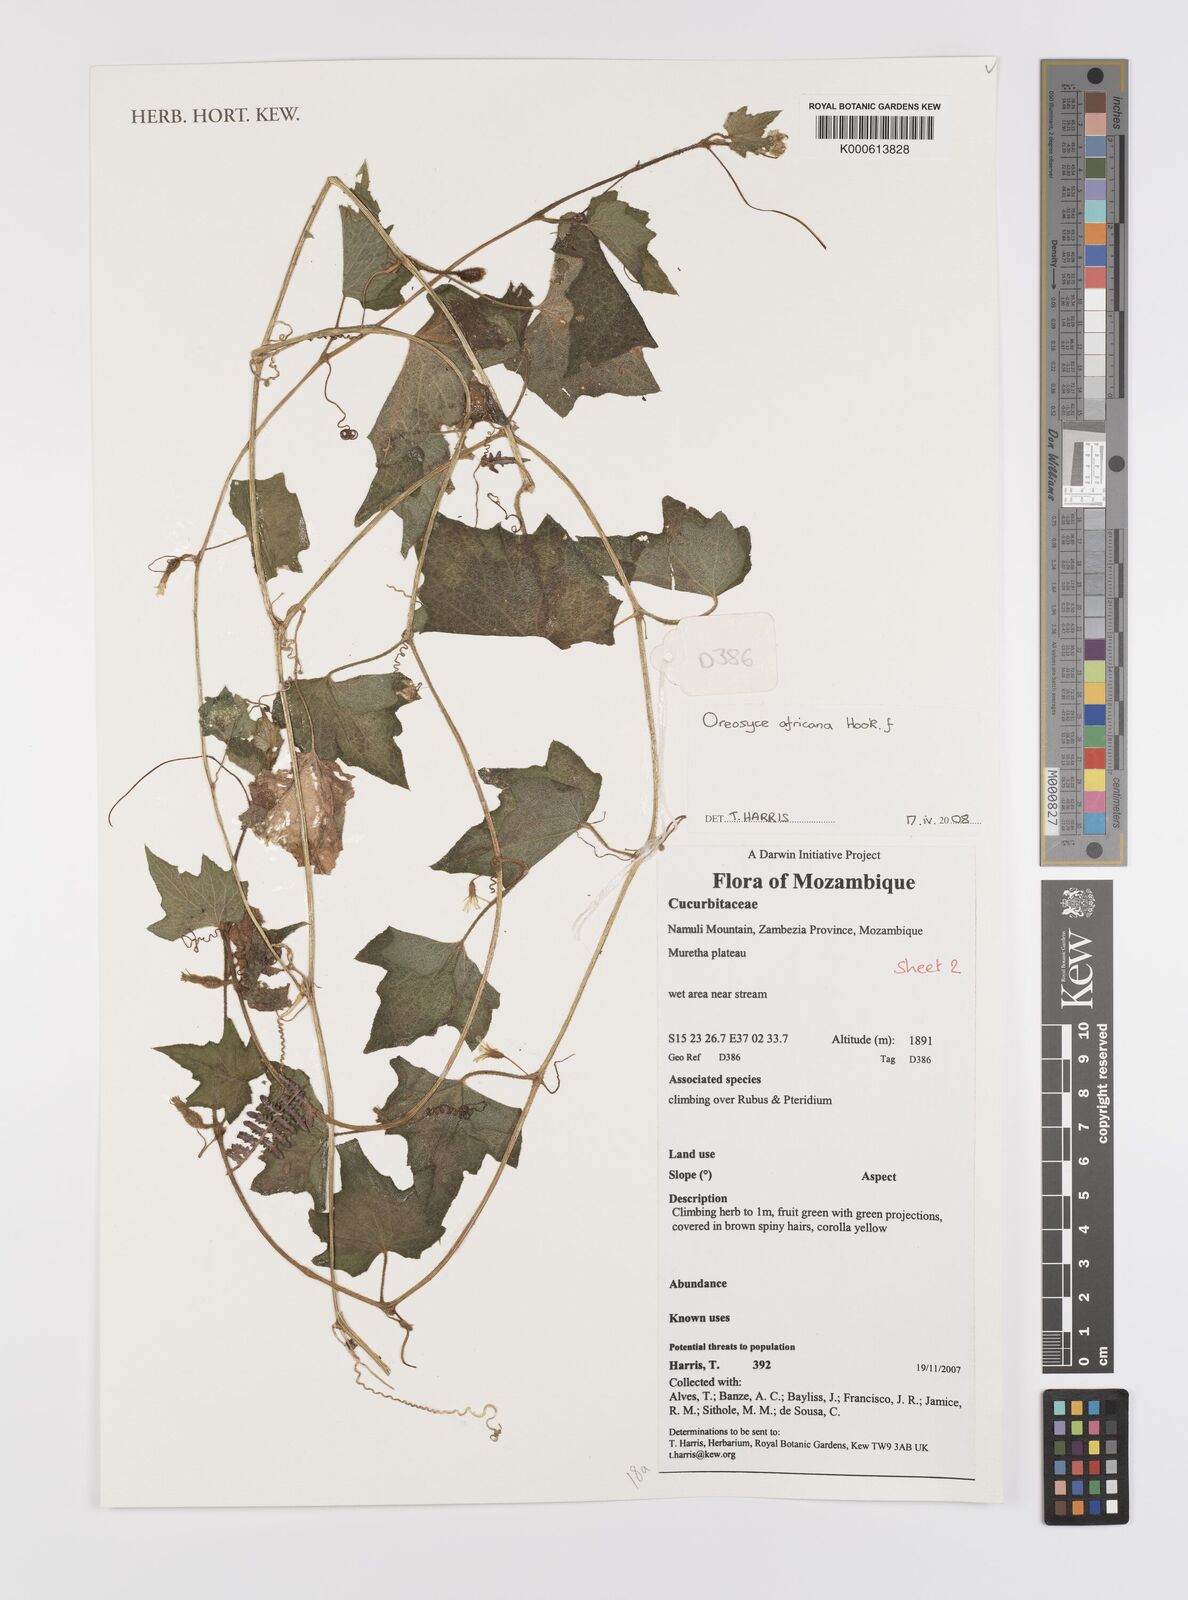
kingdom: Plantae
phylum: Tracheophyta
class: Magnoliopsida
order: Cucurbitales
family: Cucurbitaceae
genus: Cucumis
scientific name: Cucumis oreosyce
